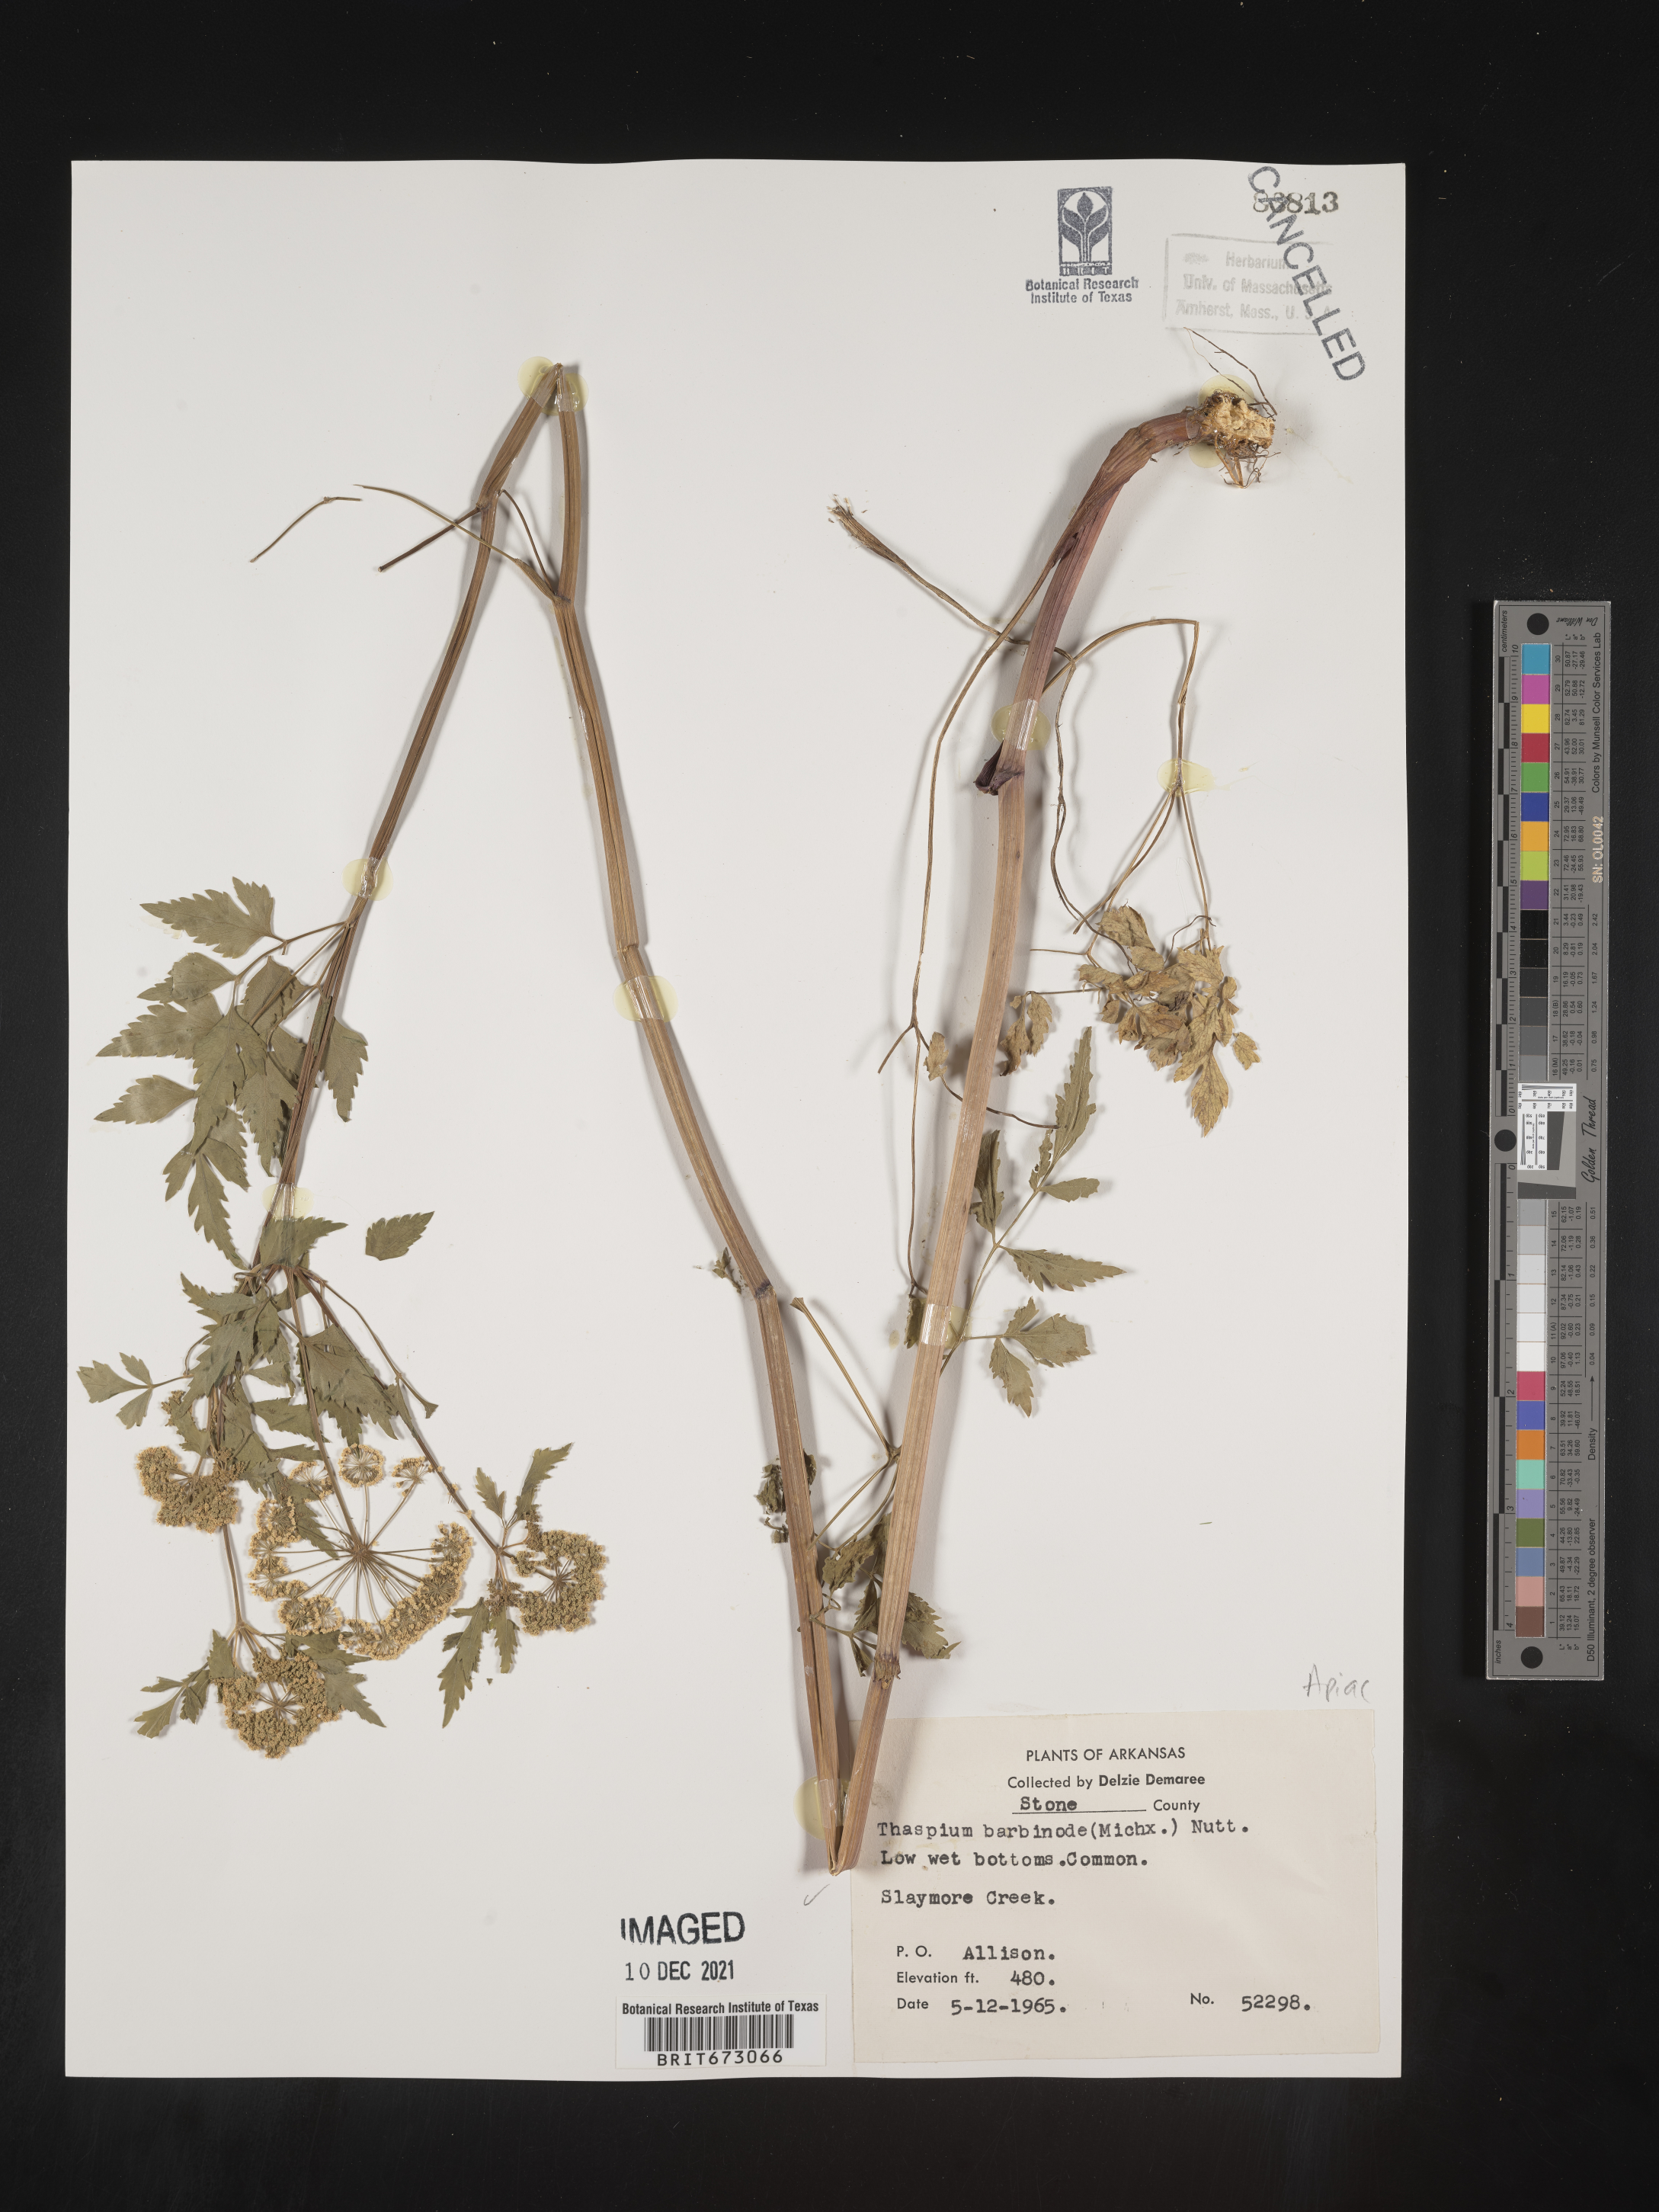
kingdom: Plantae
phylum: Tracheophyta
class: Magnoliopsida
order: Apiales
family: Apiaceae
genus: Thaspium
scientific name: Thaspium barbinode
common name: Bearded meadow-parsnip
